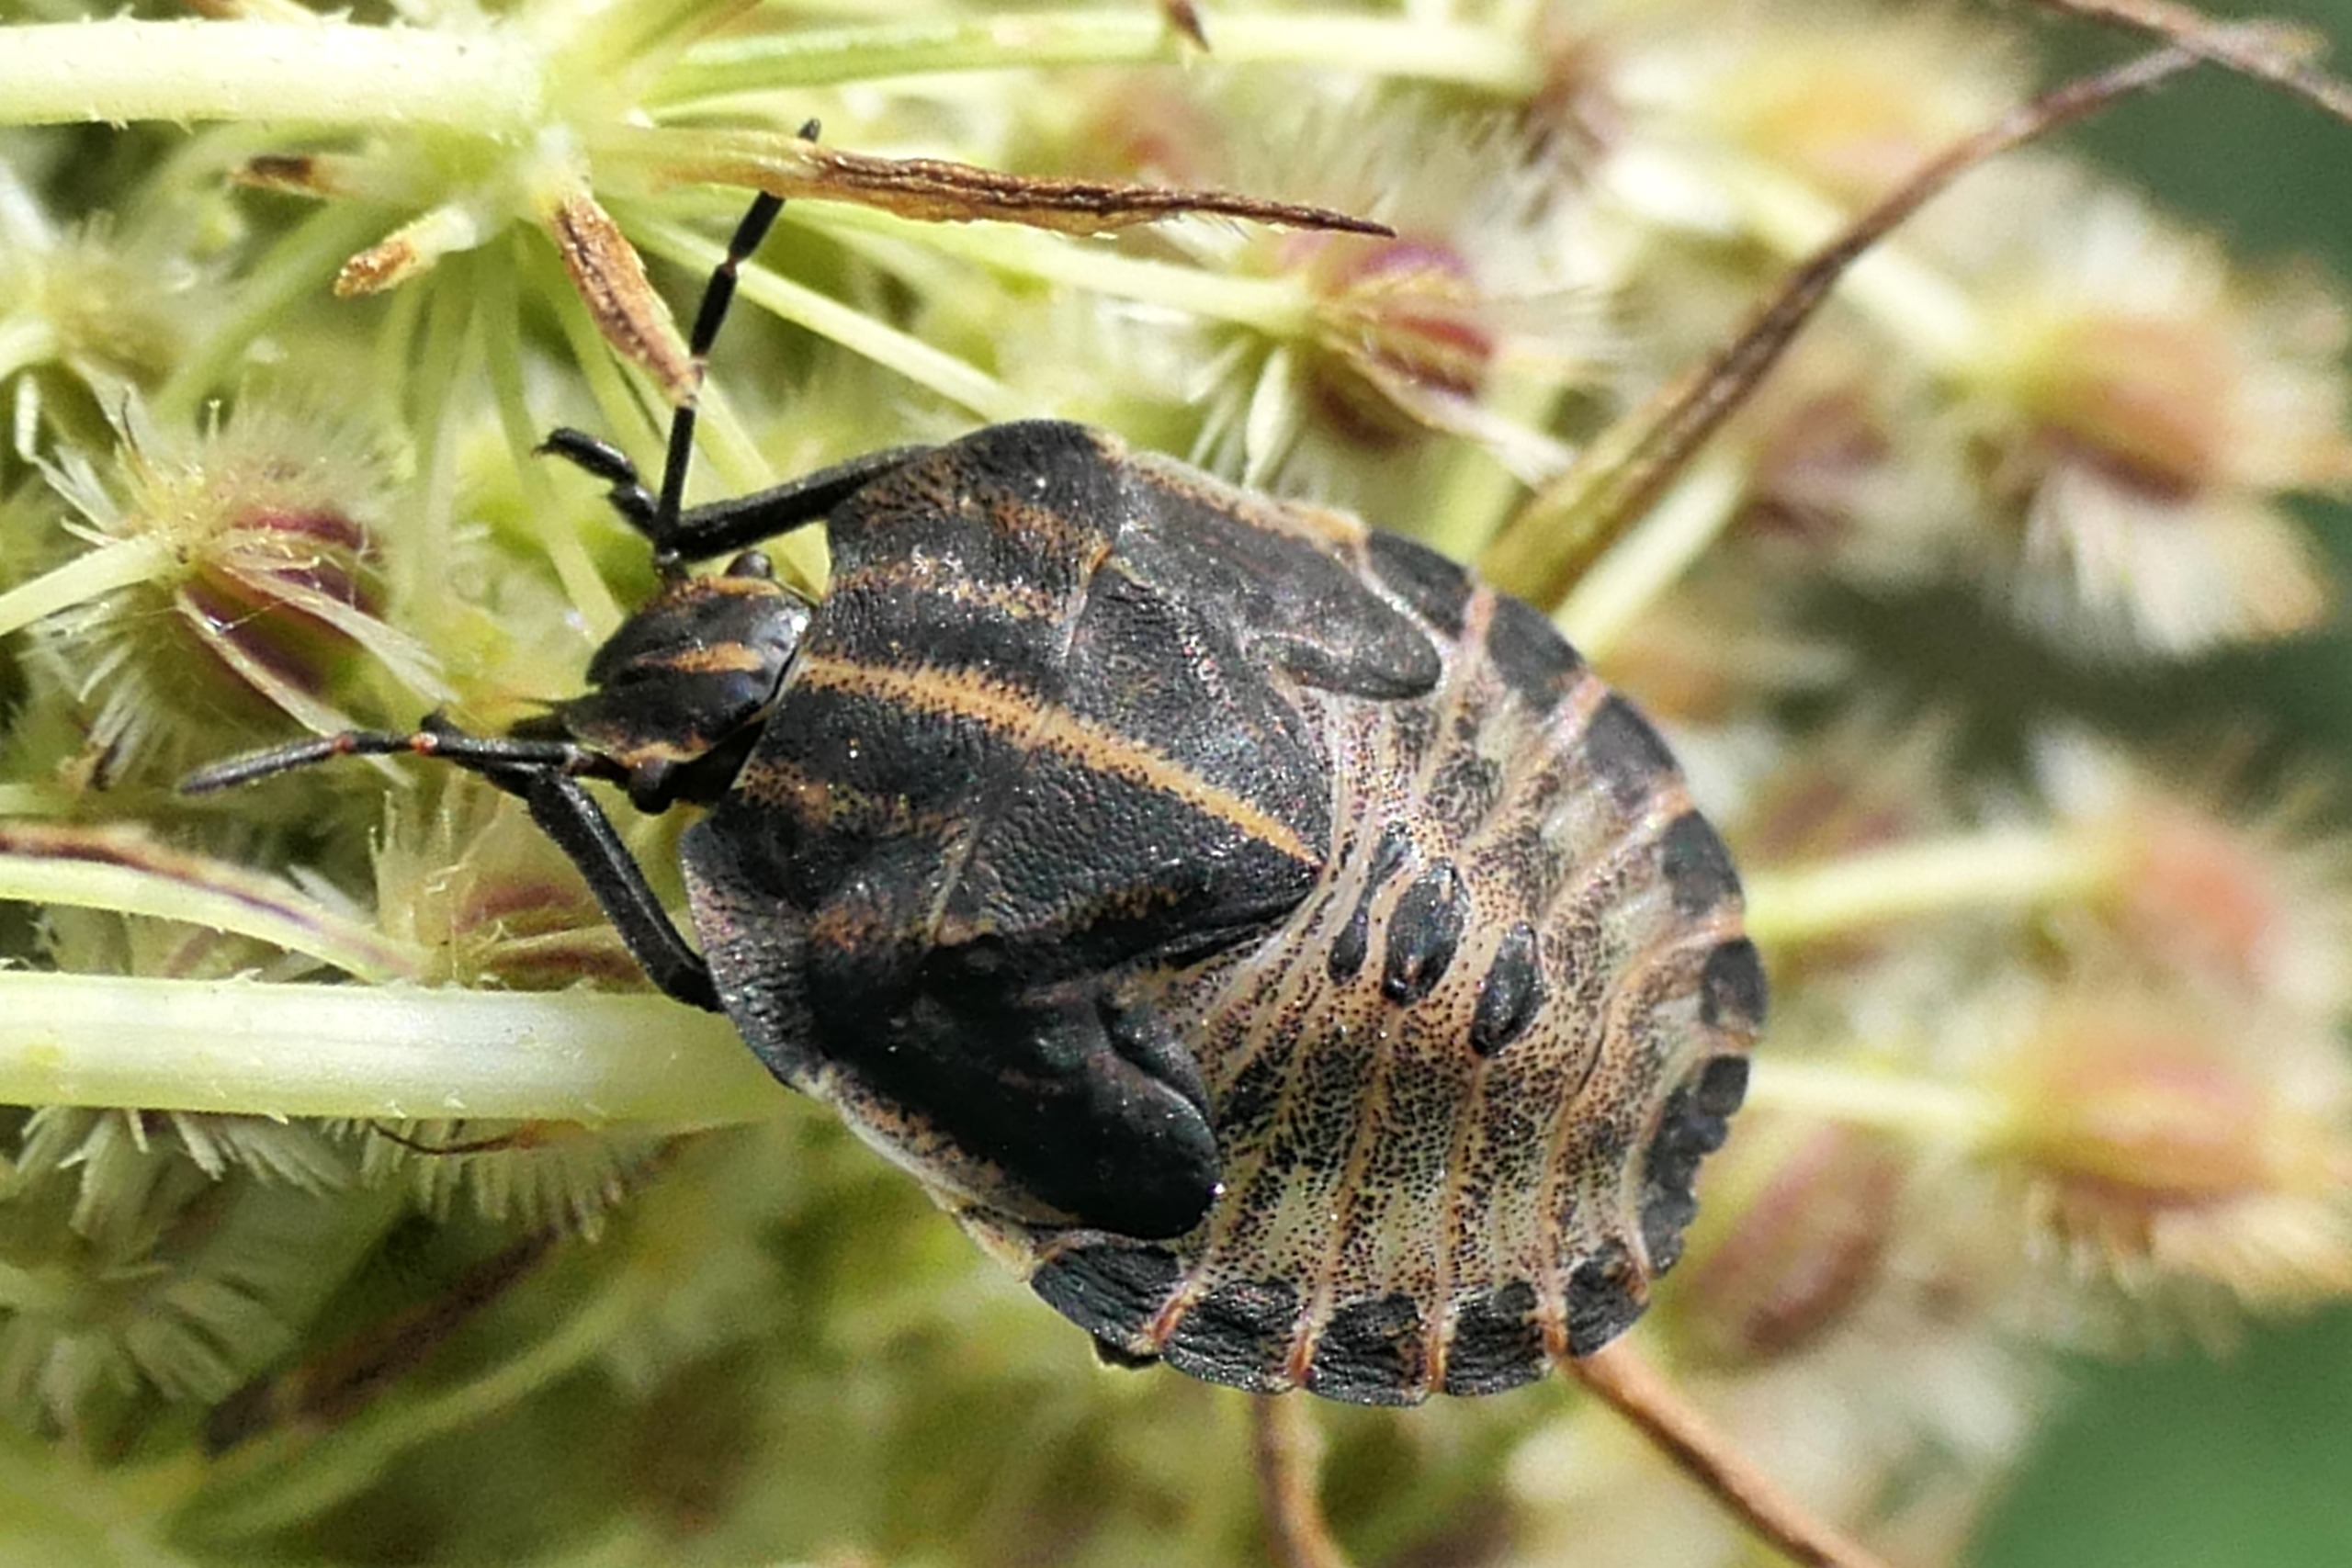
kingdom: Animalia
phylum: Arthropoda
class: Insecta
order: Hemiptera
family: Pentatomidae
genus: Graphosoma
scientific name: Graphosoma italicum
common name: Stribetæge
